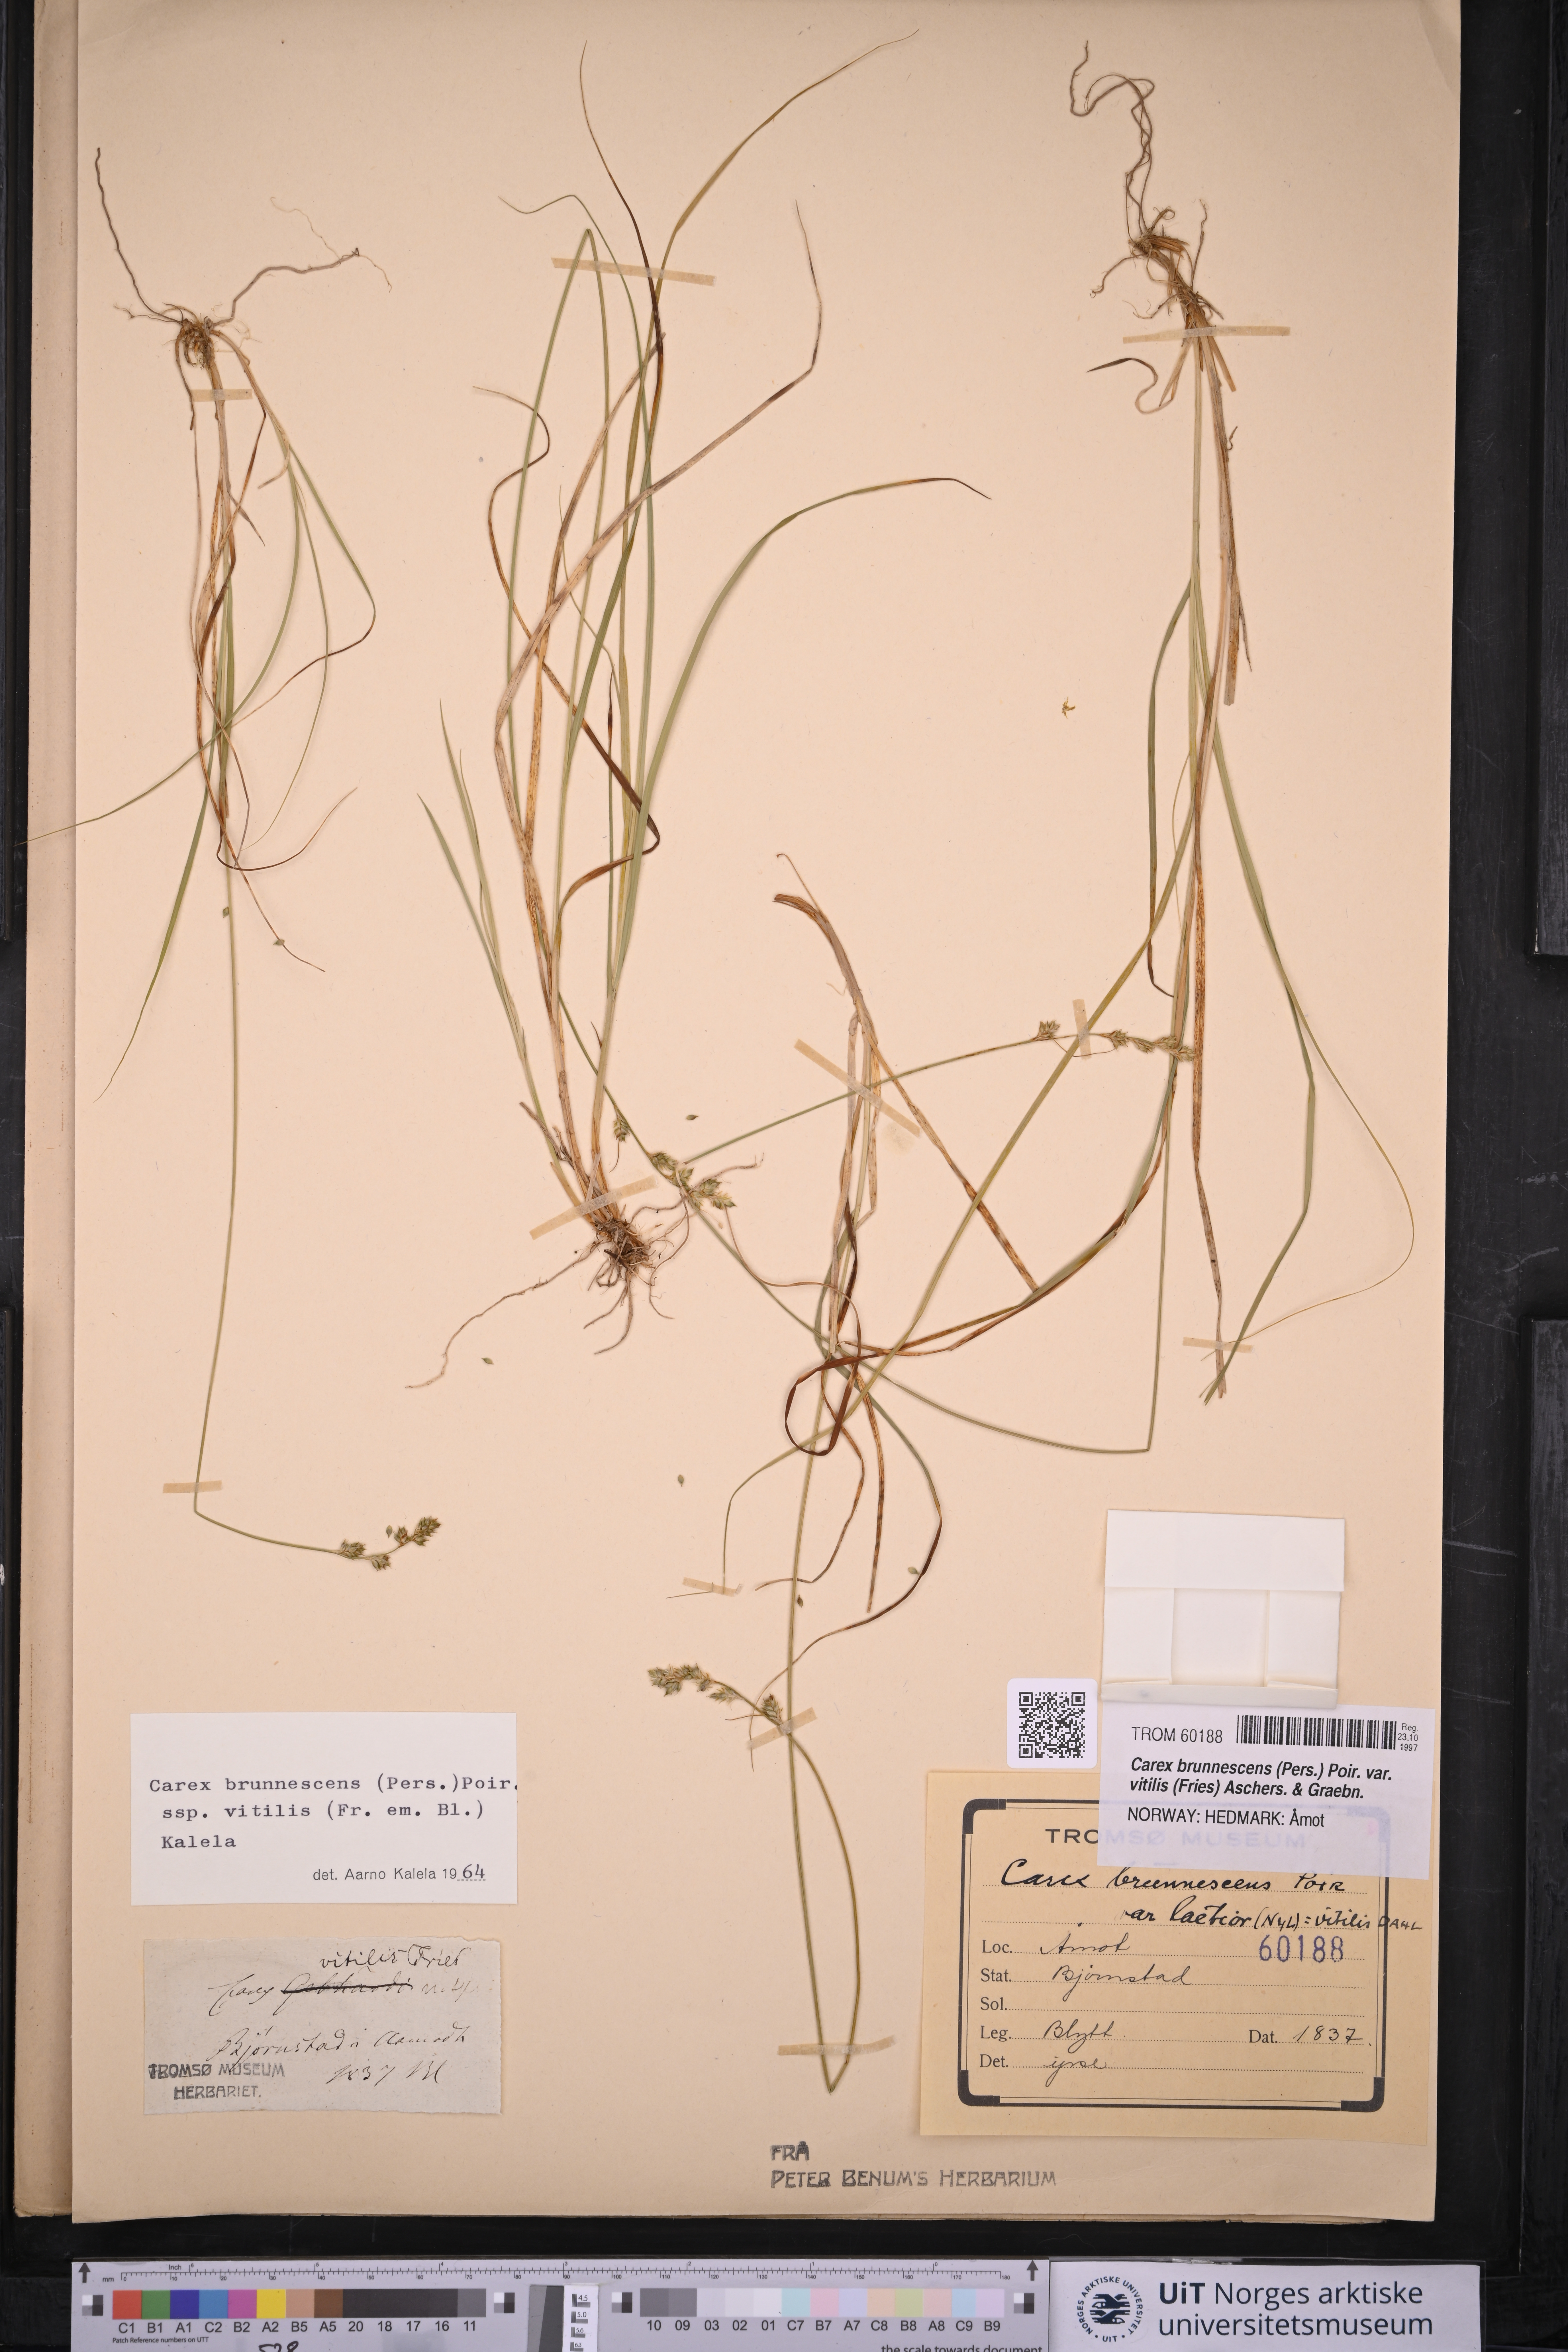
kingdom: Plantae
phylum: Tracheophyta
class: Liliopsida
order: Poales
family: Cyperaceae
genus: Carex
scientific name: Carex brunnescens
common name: Brown sedge
